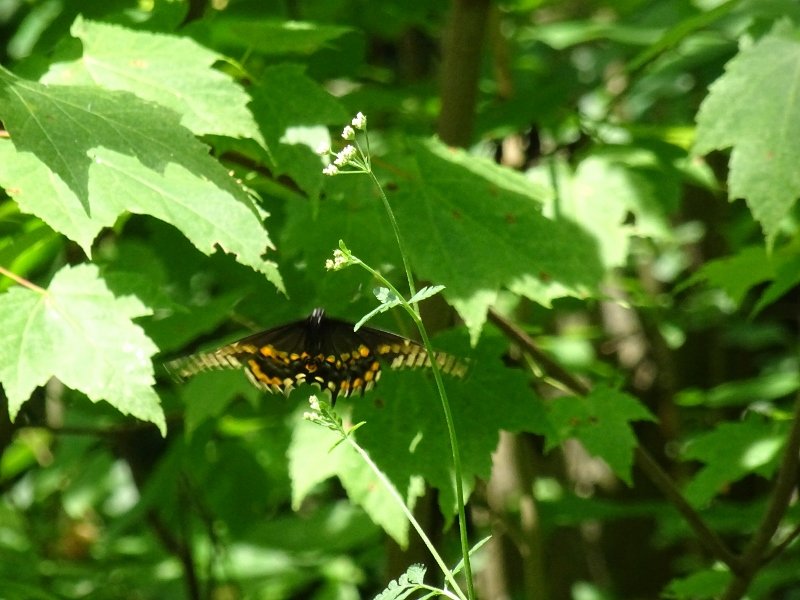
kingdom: Animalia
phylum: Arthropoda
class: Insecta
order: Lepidoptera
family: Papilionidae
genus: Papilio
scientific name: Papilio polyxenes
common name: Black Swallowtail
